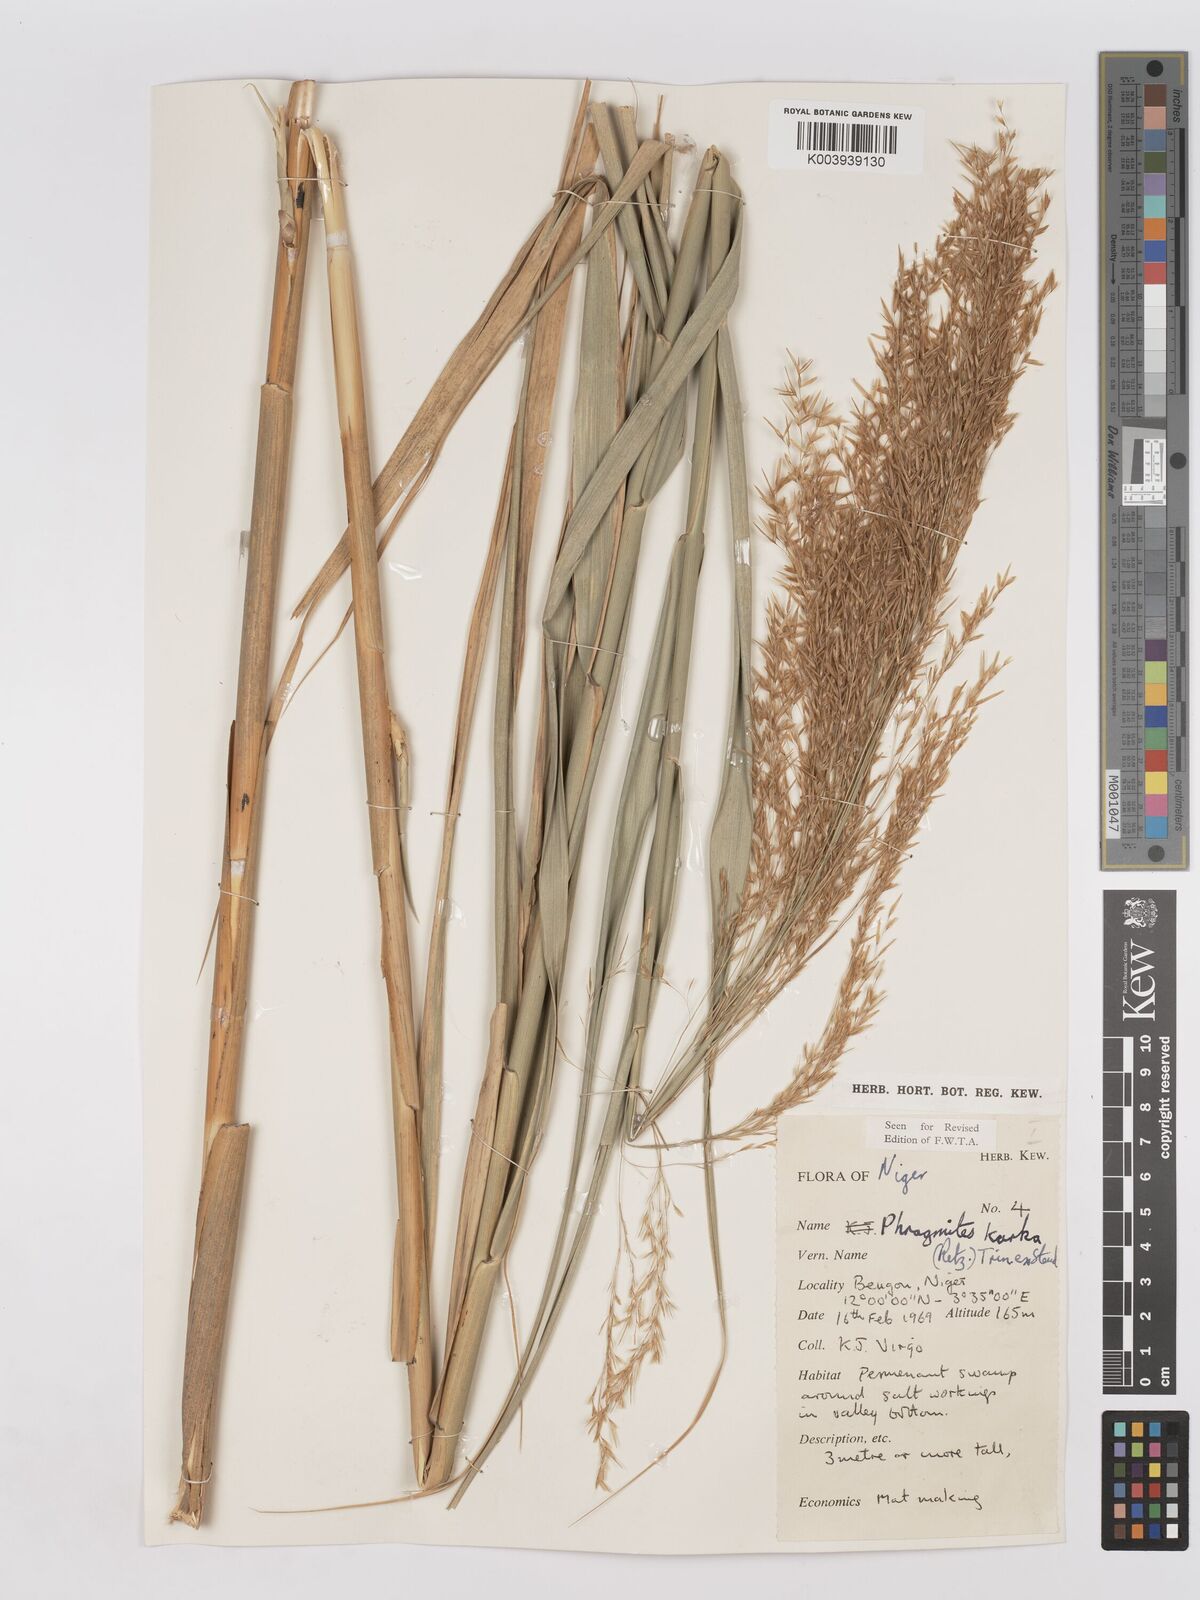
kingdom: Plantae
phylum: Tracheophyta
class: Liliopsida
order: Poales
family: Poaceae
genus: Phragmites
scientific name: Phragmites karka
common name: Tropical reed
